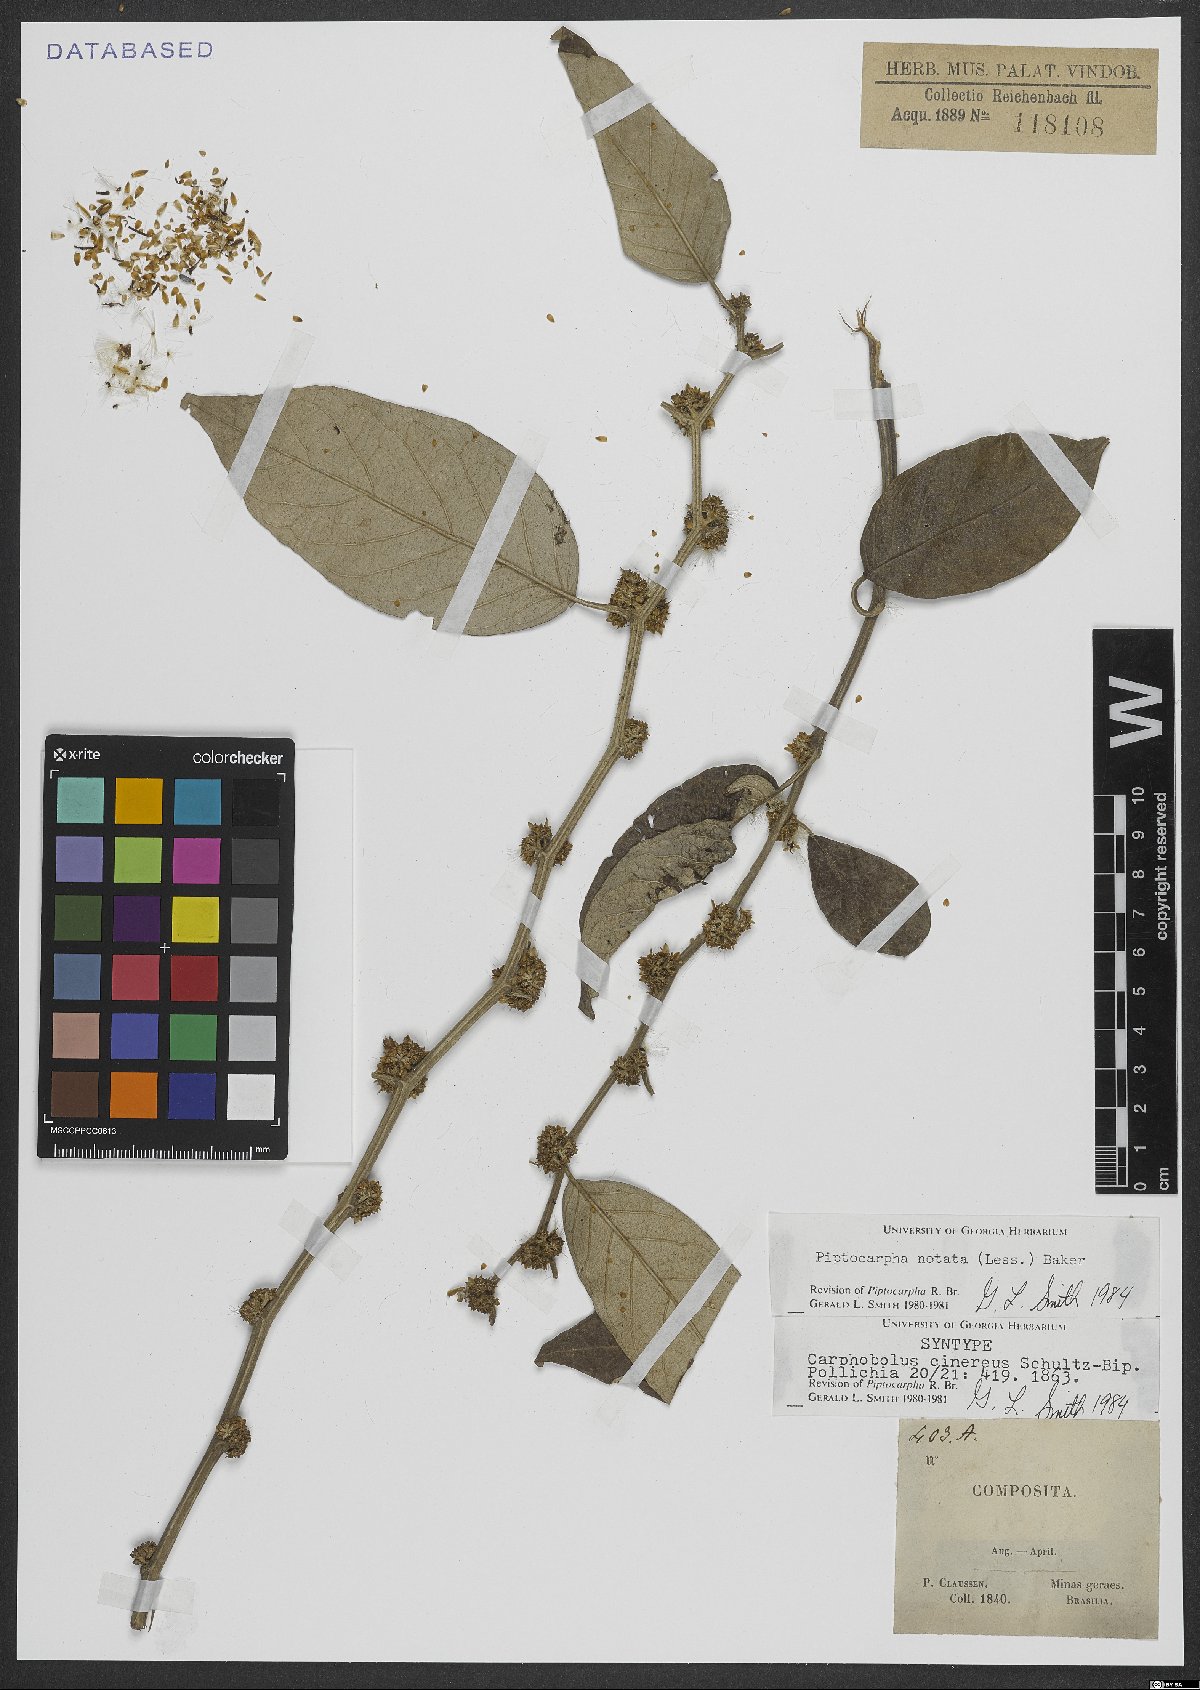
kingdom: Plantae
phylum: Tracheophyta
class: Magnoliopsida
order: Asterales
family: Asteraceae
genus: Piptocarpha
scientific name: Piptocarpha notata
